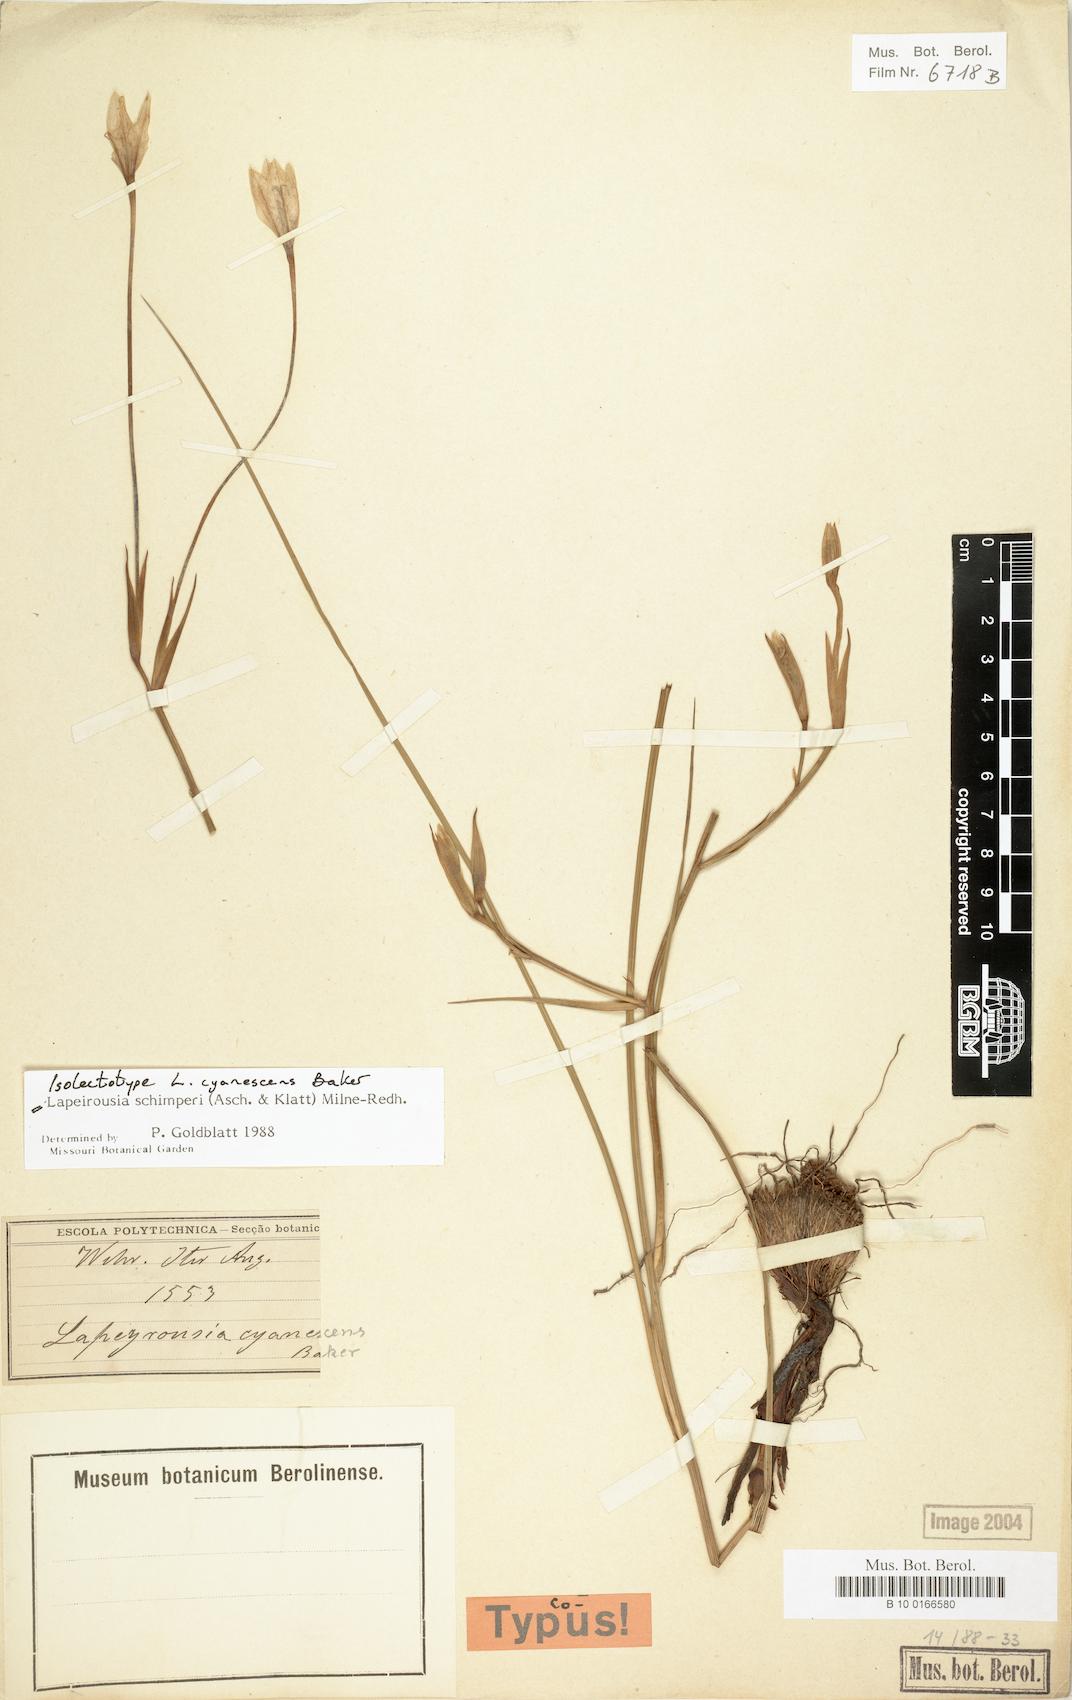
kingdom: Plantae
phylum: Tracheophyta
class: Liliopsida
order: Asparagales
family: Iridaceae
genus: Afrosolen
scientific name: Afrosolen schimperi
